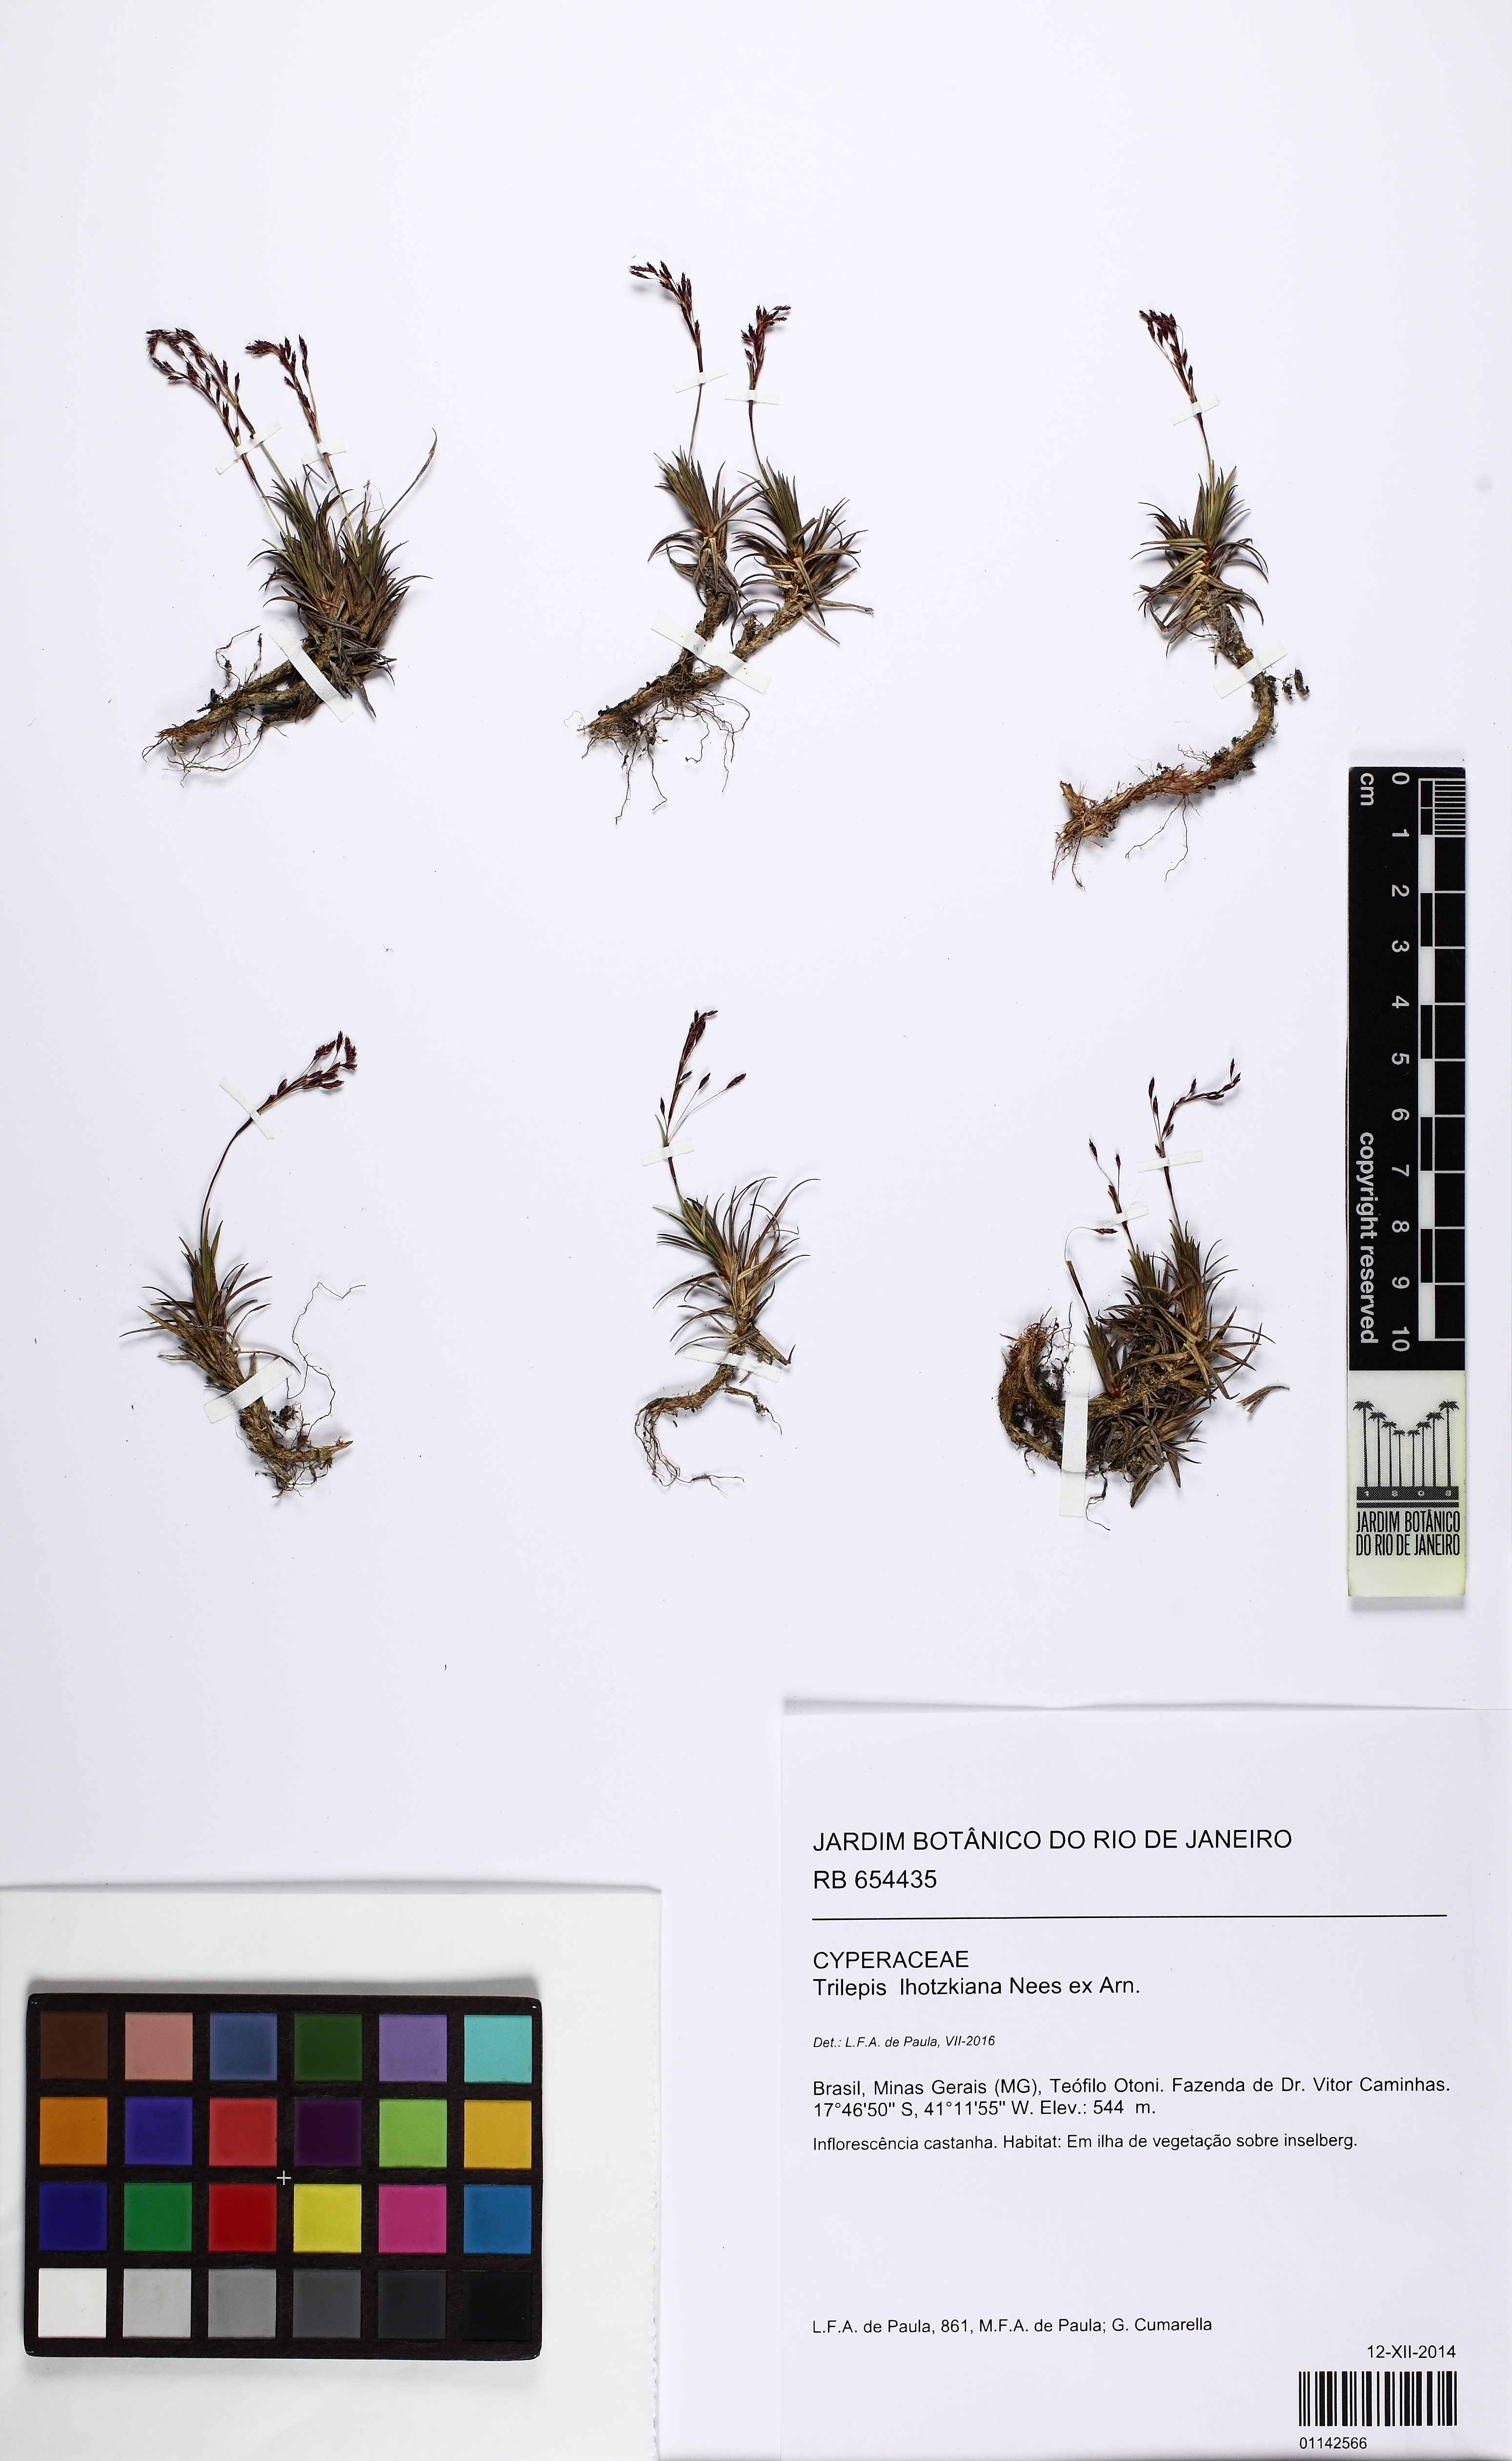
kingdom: Plantae
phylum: Tracheophyta
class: Liliopsida
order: Poales
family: Cyperaceae
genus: Trilepis
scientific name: Trilepis lhotzkiana
